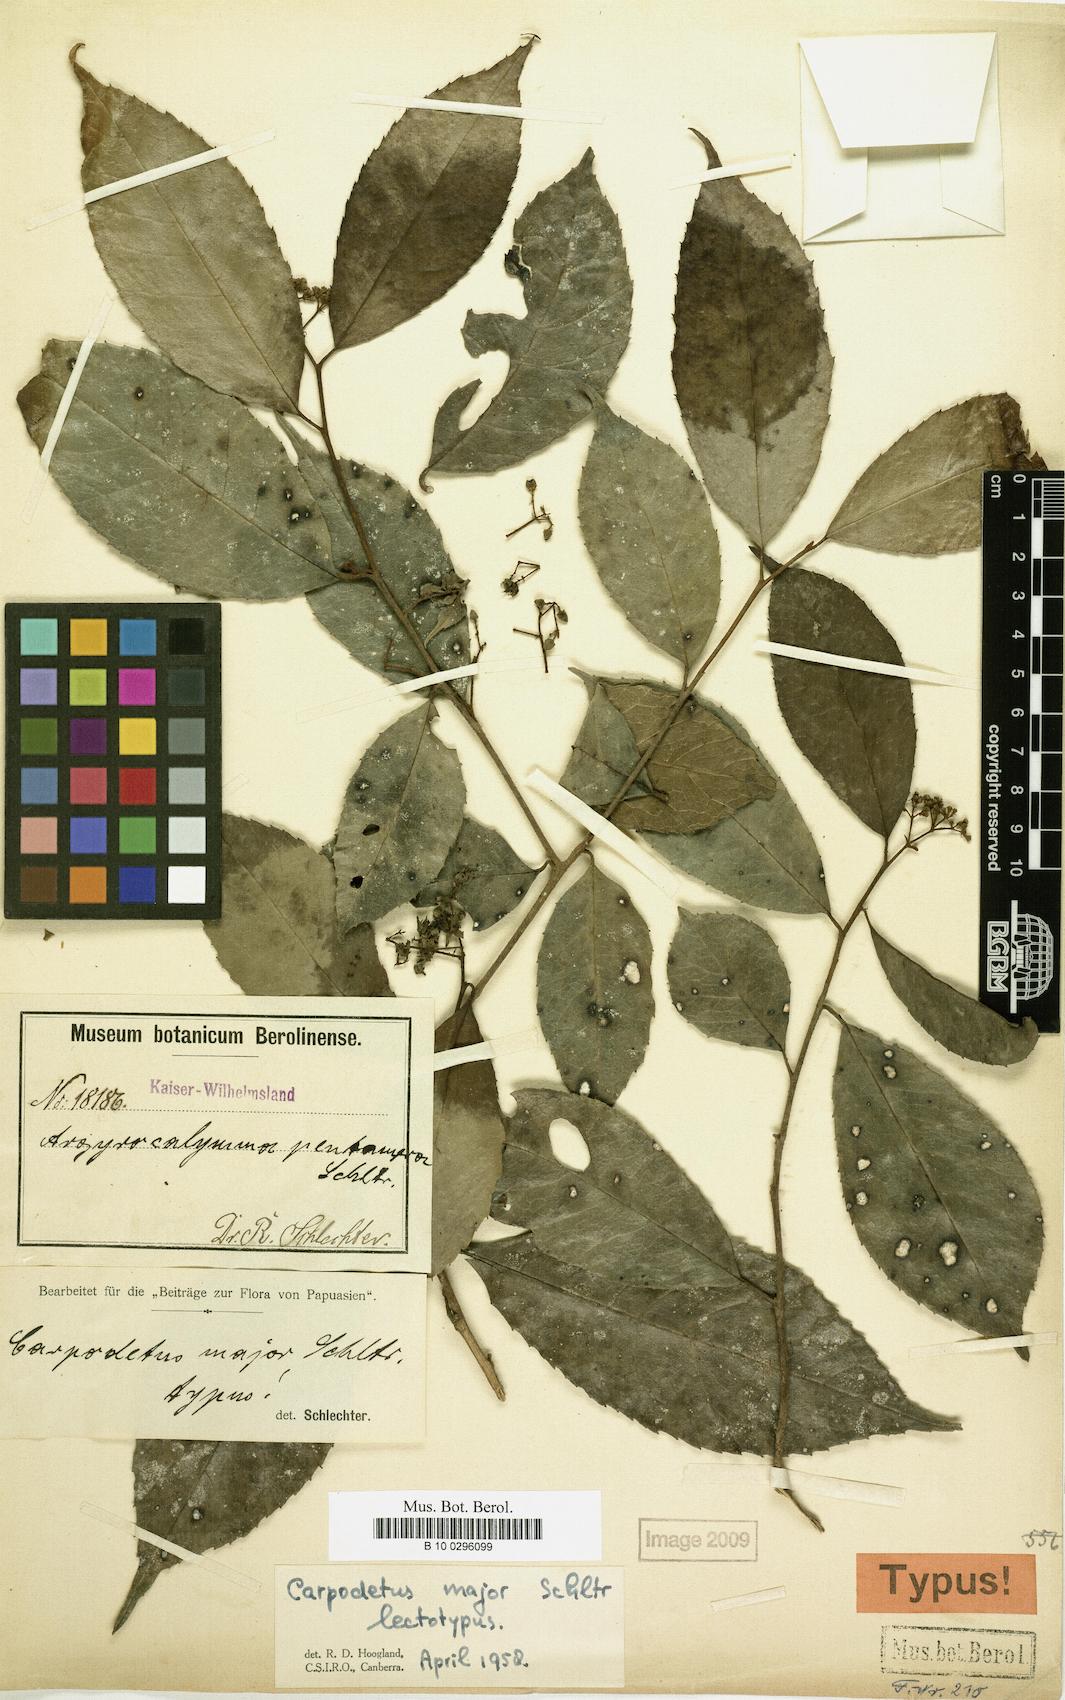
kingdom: Plantae
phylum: Tracheophyta
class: Magnoliopsida
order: Asterales
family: Rousseaceae
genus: Carpodetus
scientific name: Carpodetus arboreus
